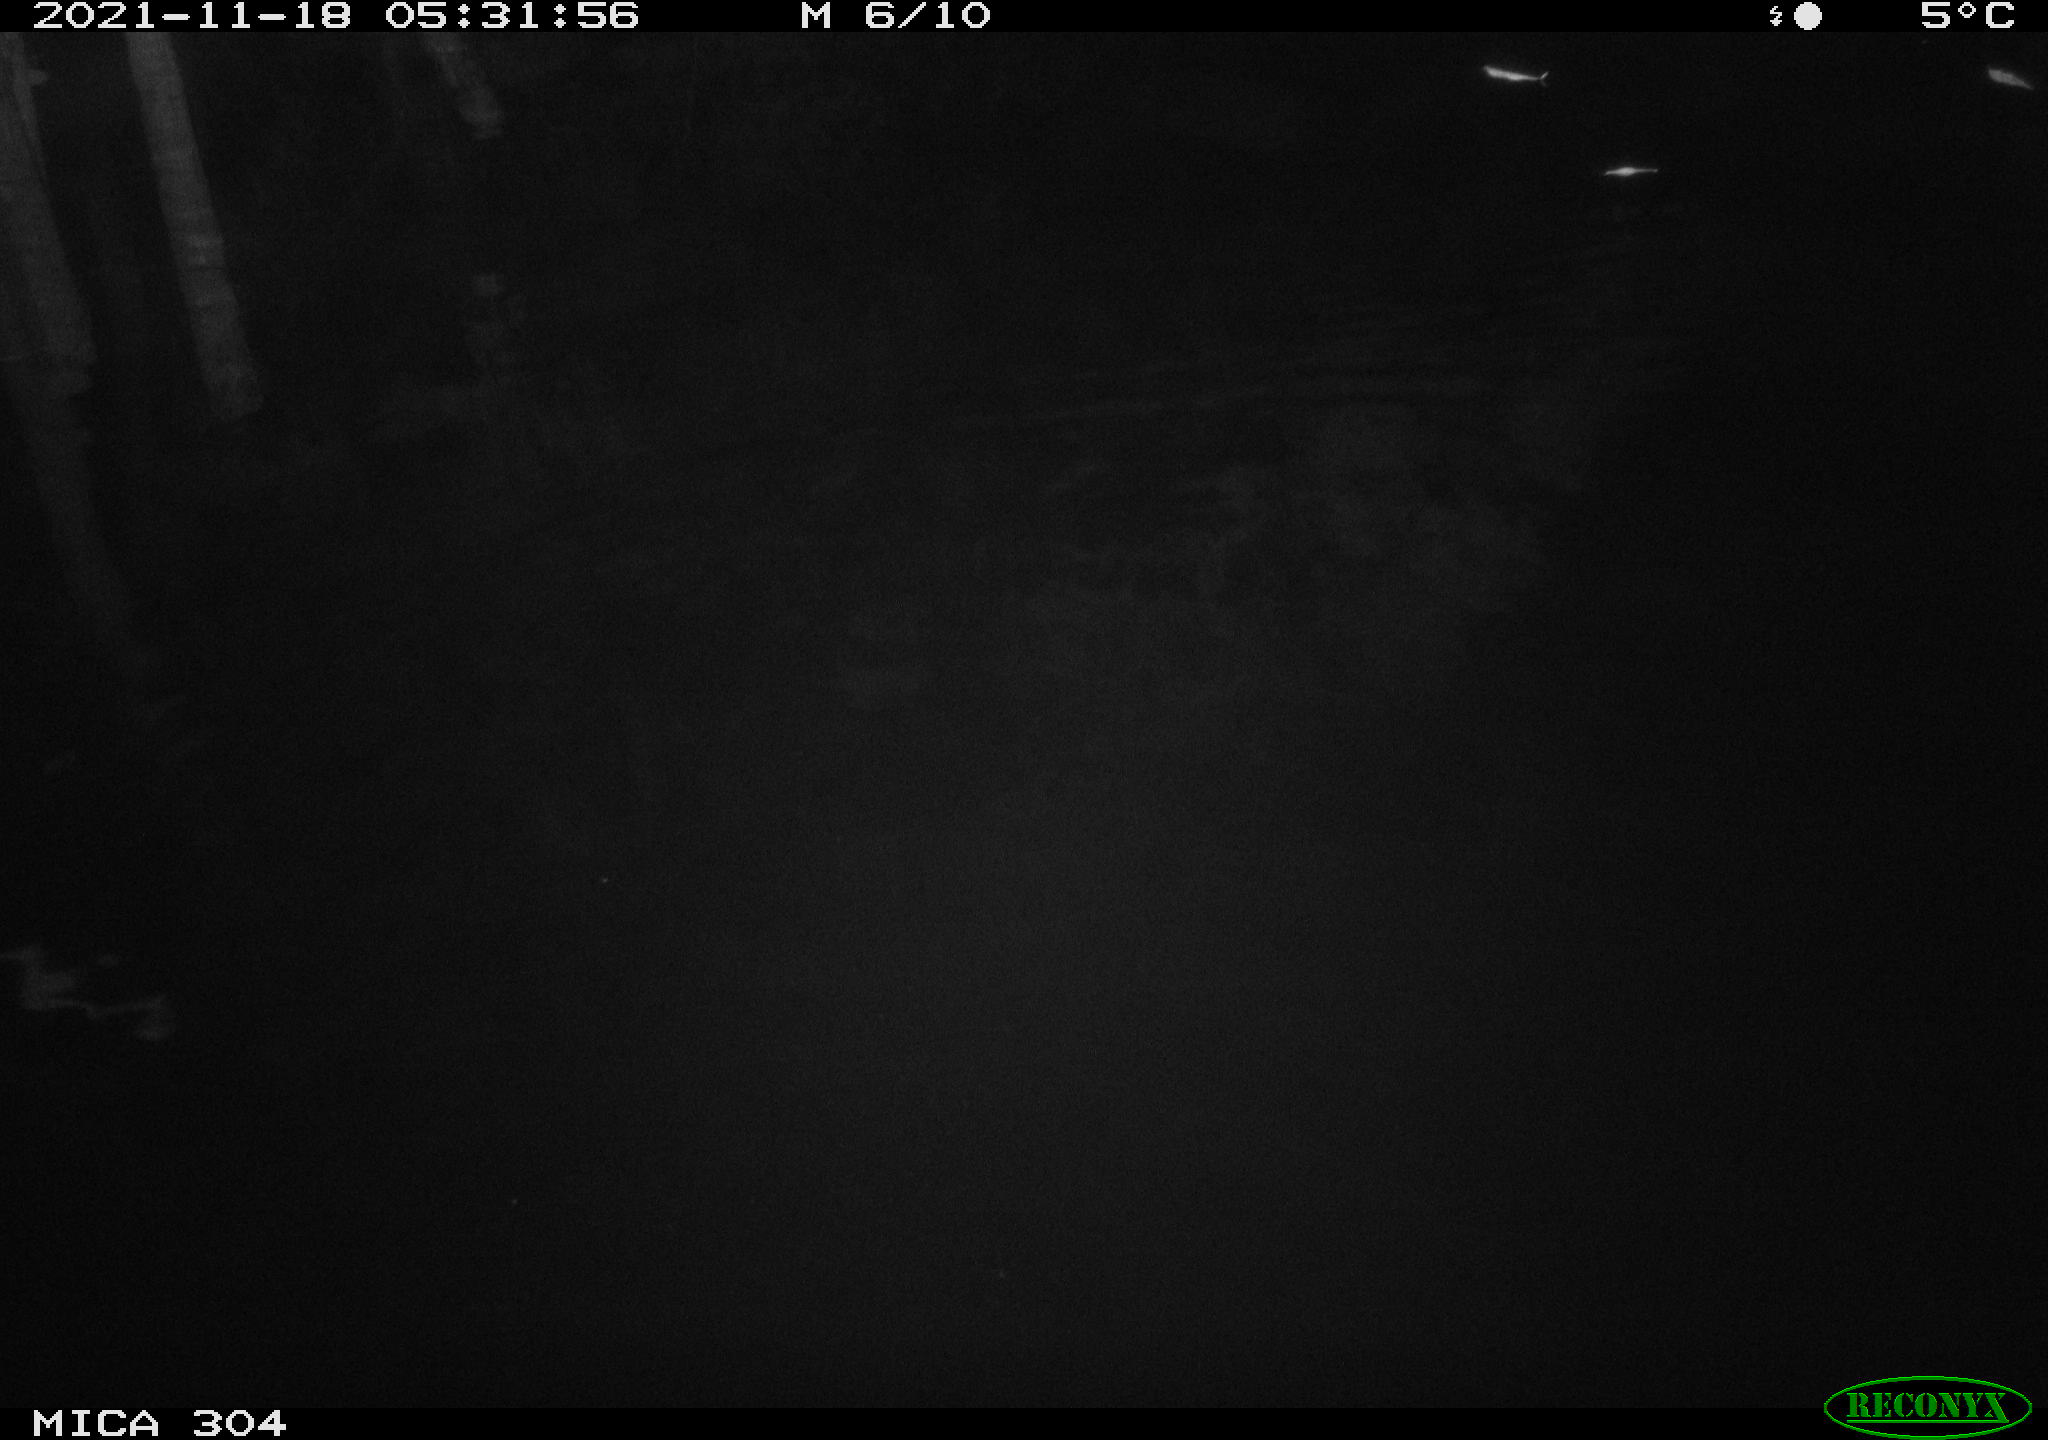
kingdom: Animalia
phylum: Chordata
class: Mammalia
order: Rodentia
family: Muridae
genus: Rattus
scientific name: Rattus norvegicus
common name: Brown rat
